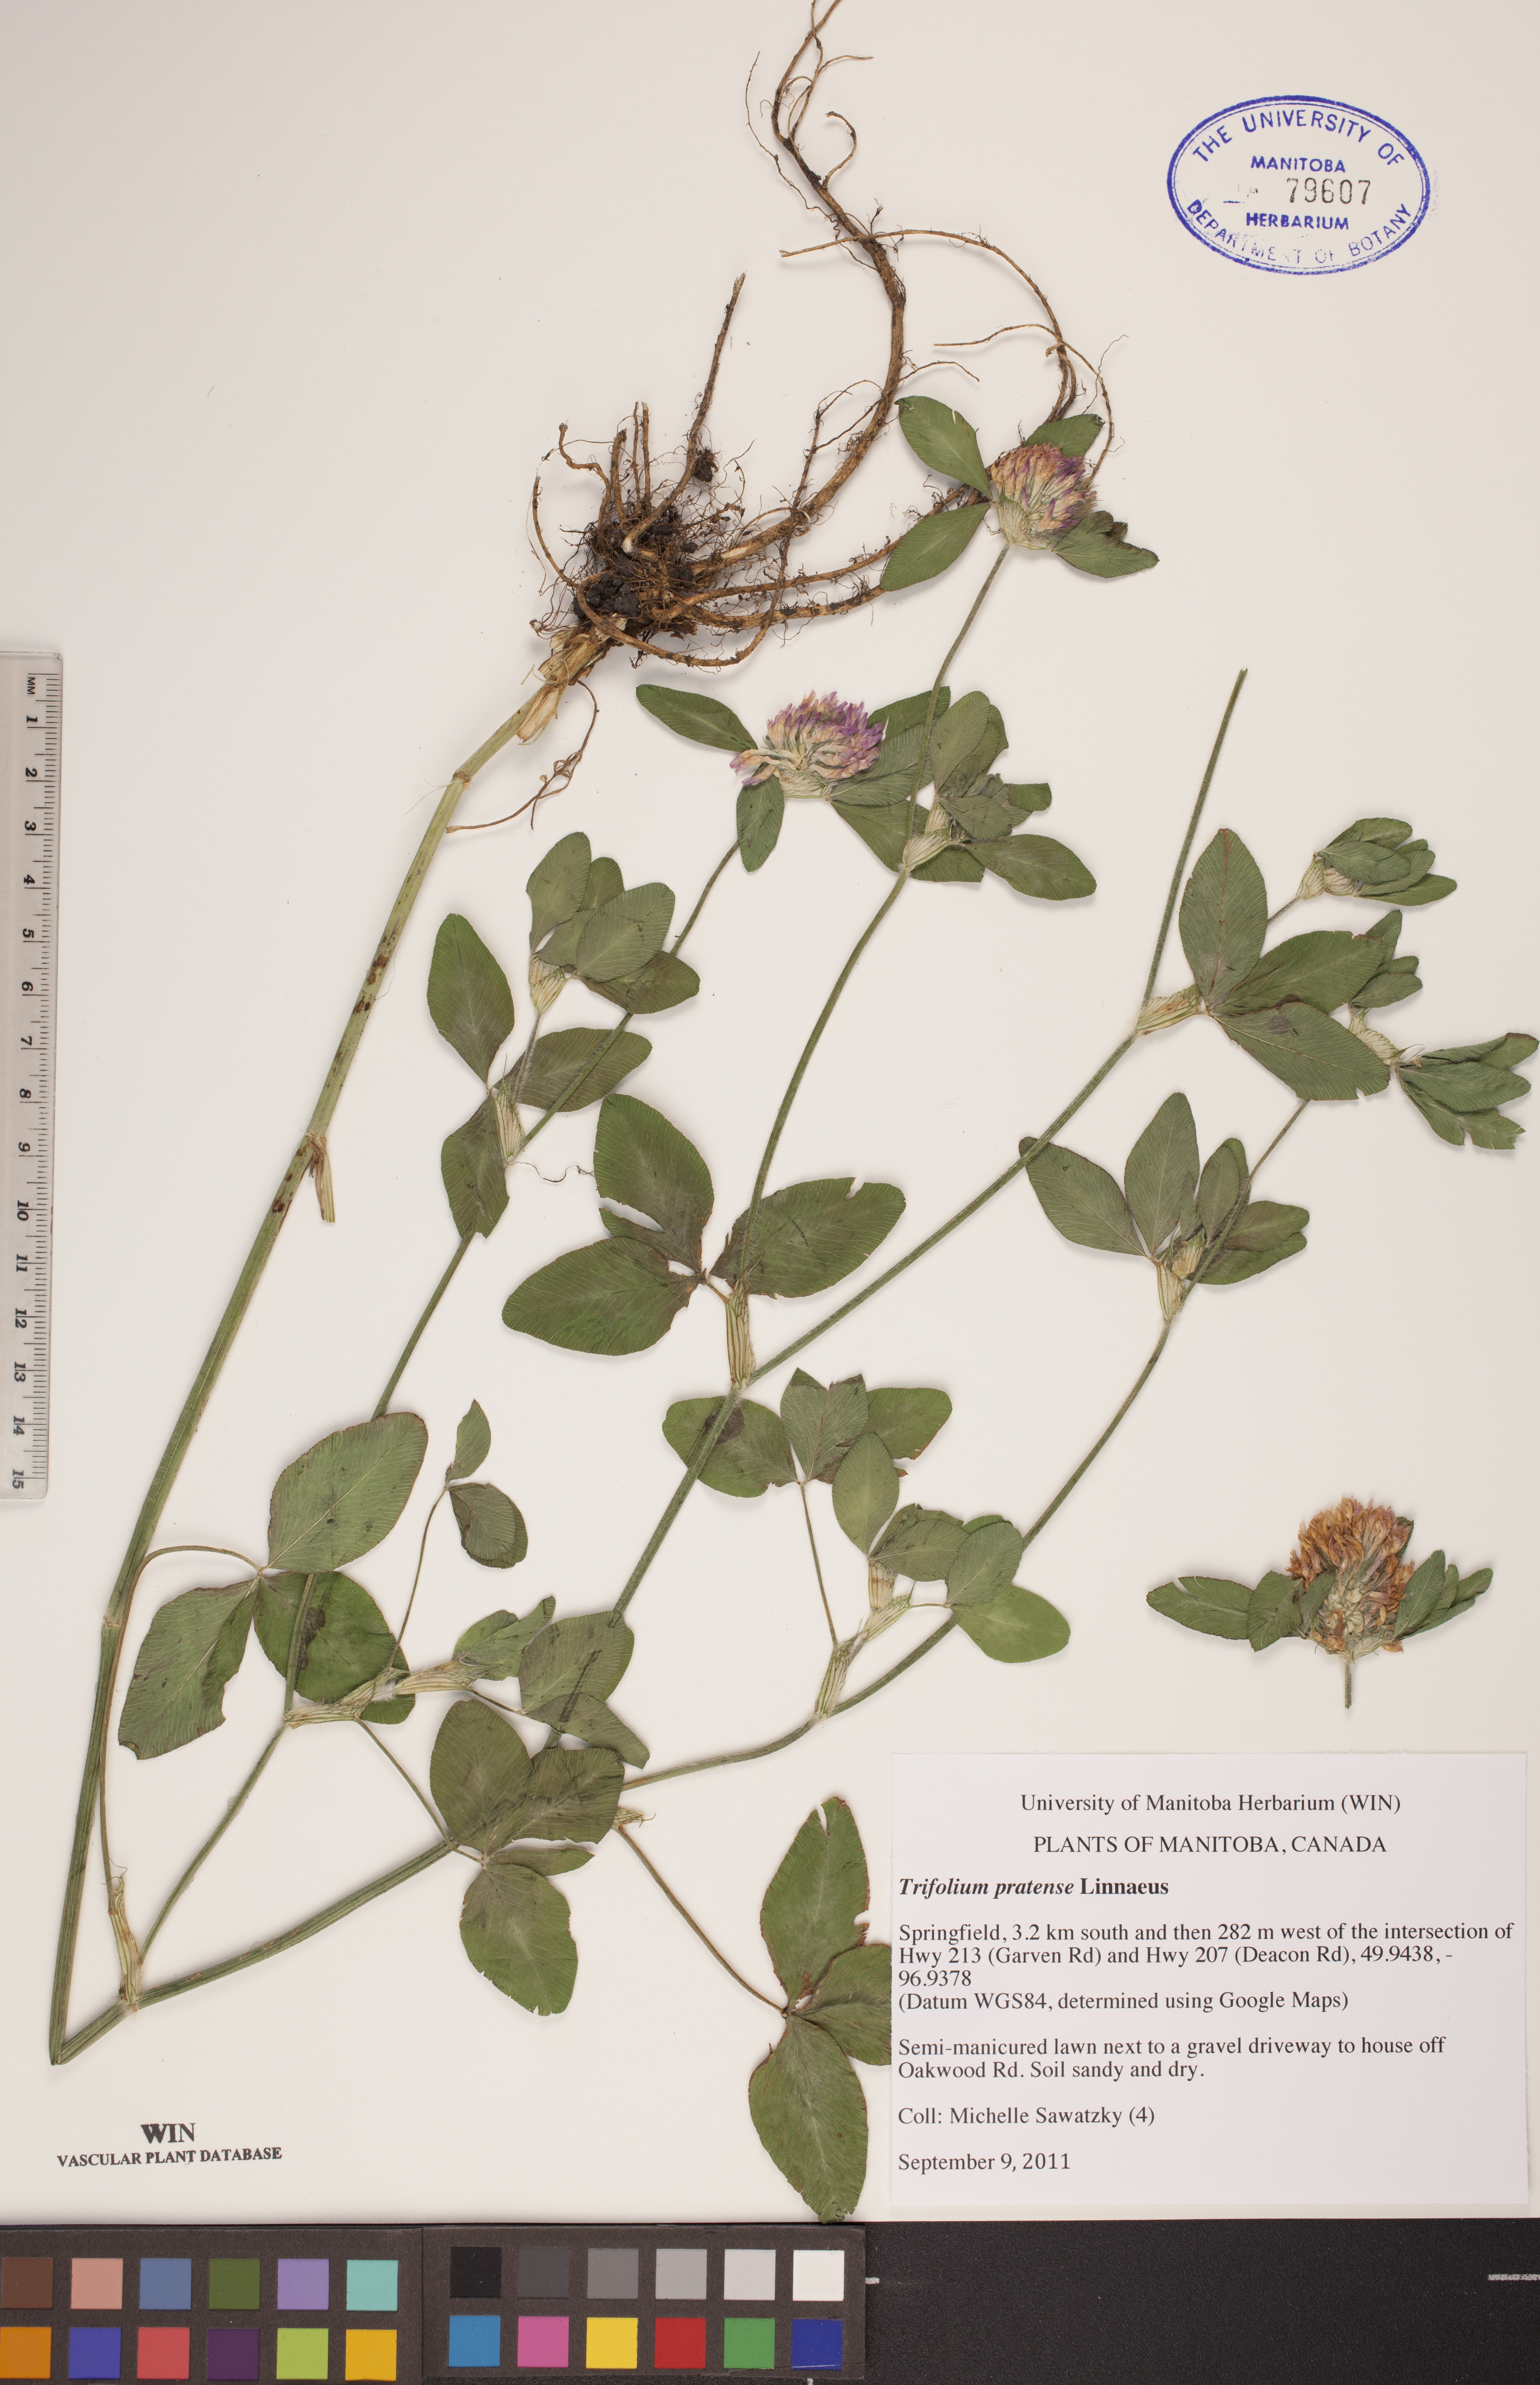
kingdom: Plantae
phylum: Tracheophyta
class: Magnoliopsida
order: Fabales
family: Fabaceae
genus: Trifolium
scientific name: Trifolium pratense
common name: Red clover
